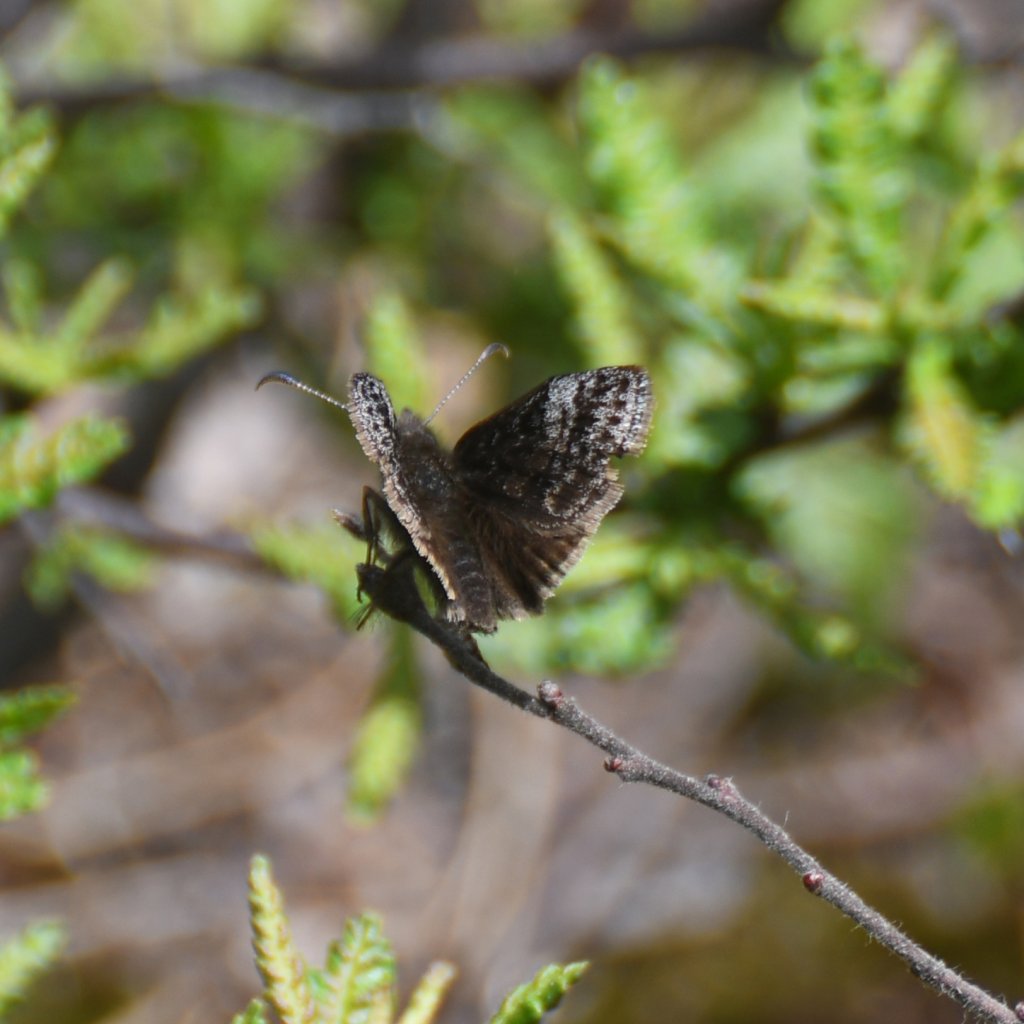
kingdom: Animalia
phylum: Arthropoda
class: Insecta
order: Lepidoptera
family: Hesperiidae
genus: Erynnis
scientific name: Erynnis icelus
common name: Dreamy Duskywing
